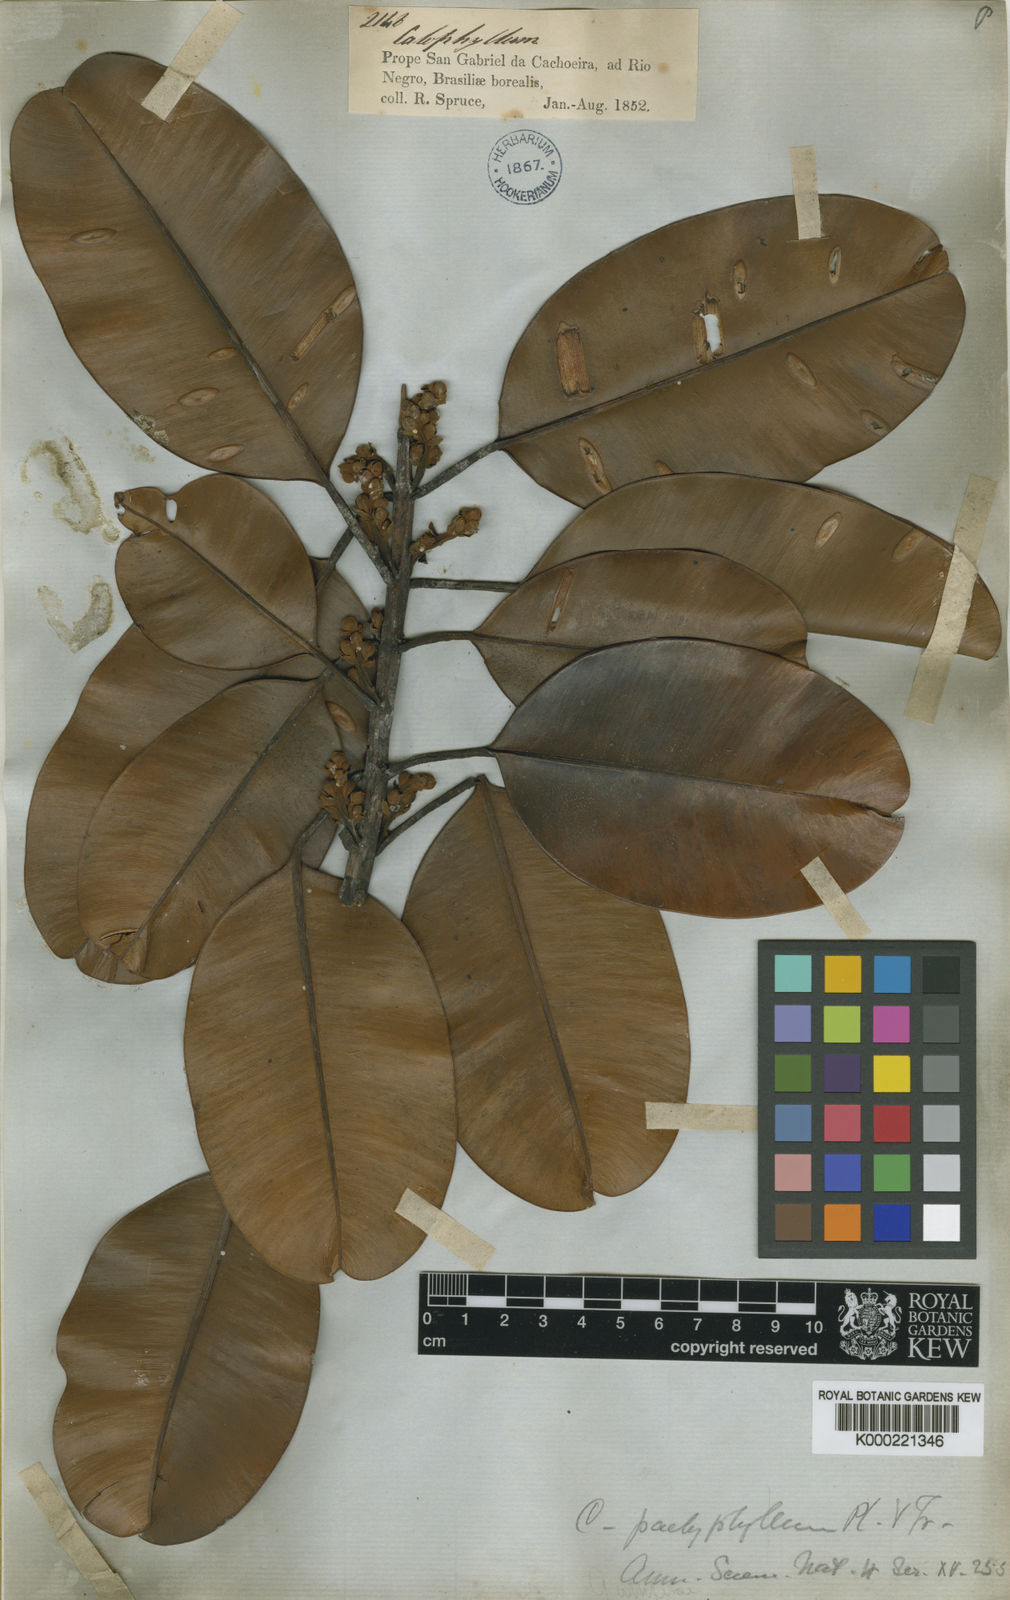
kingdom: Plantae
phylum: Tracheophyta
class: Magnoliopsida
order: Malpighiales
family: Calophyllaceae
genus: Calophyllum
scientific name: Calophyllum pachyphyllum
